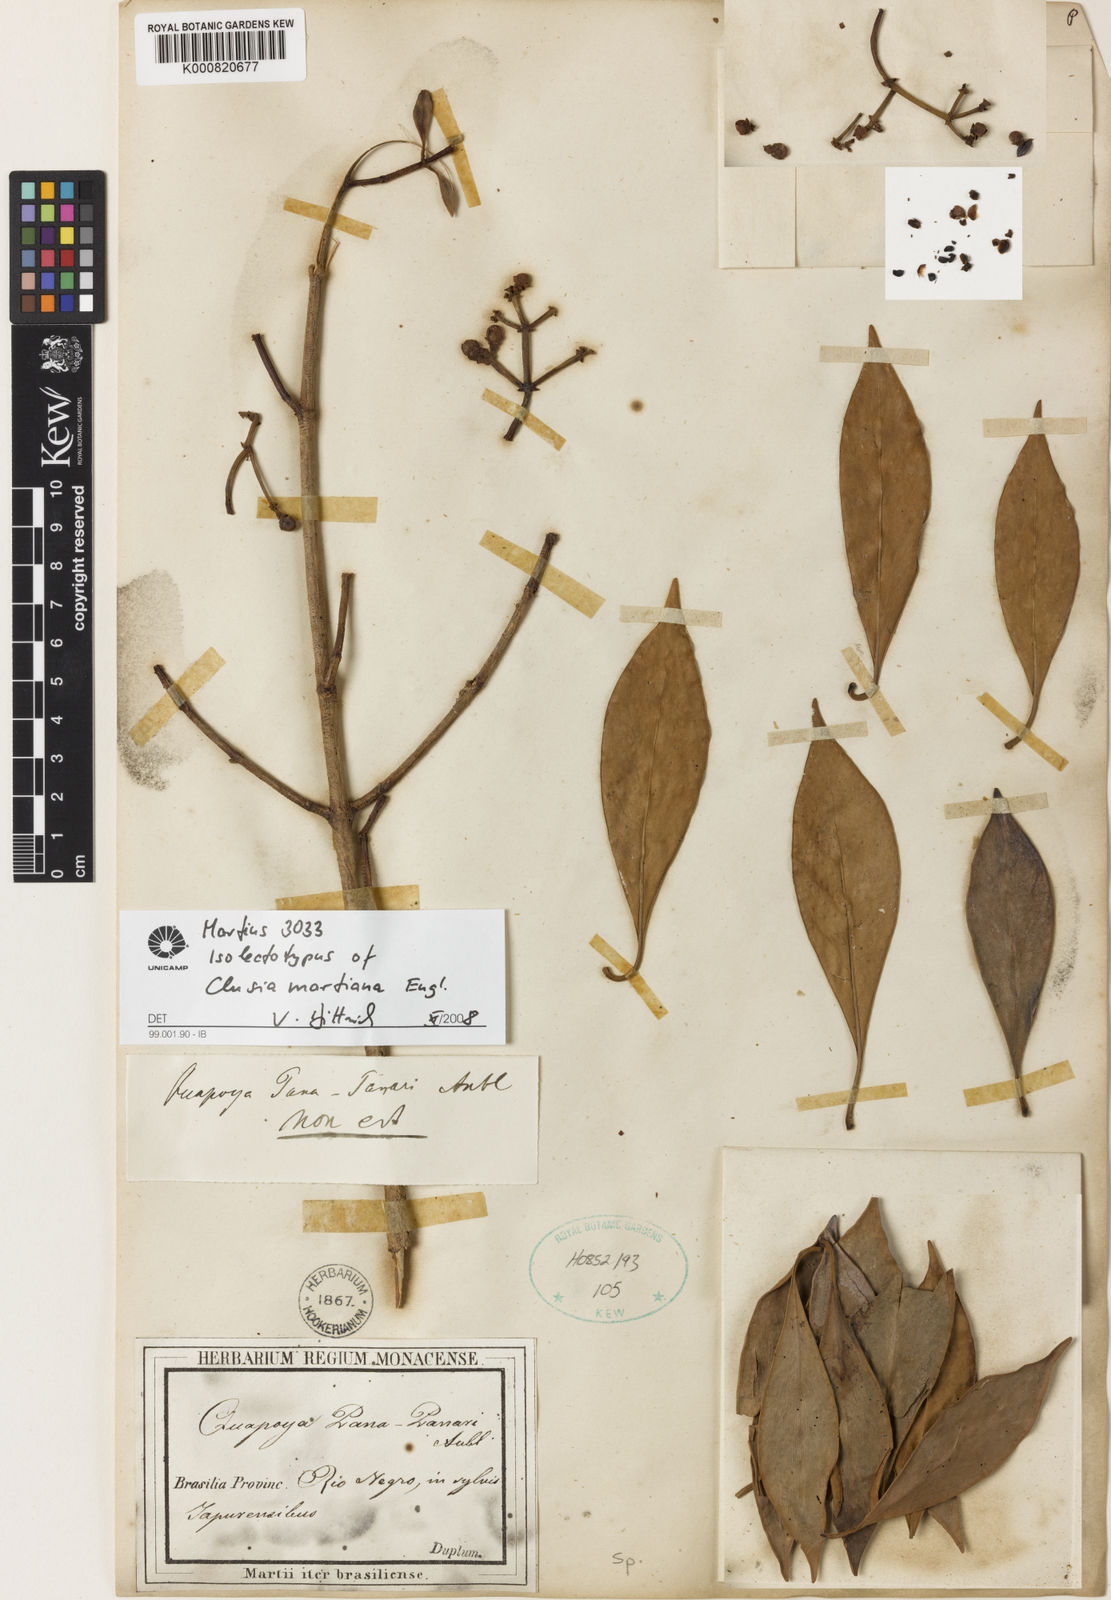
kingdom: Plantae
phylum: Tracheophyta
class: Magnoliopsida
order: Malpighiales
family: Clusiaceae
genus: Clusia
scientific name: Clusia martiana
